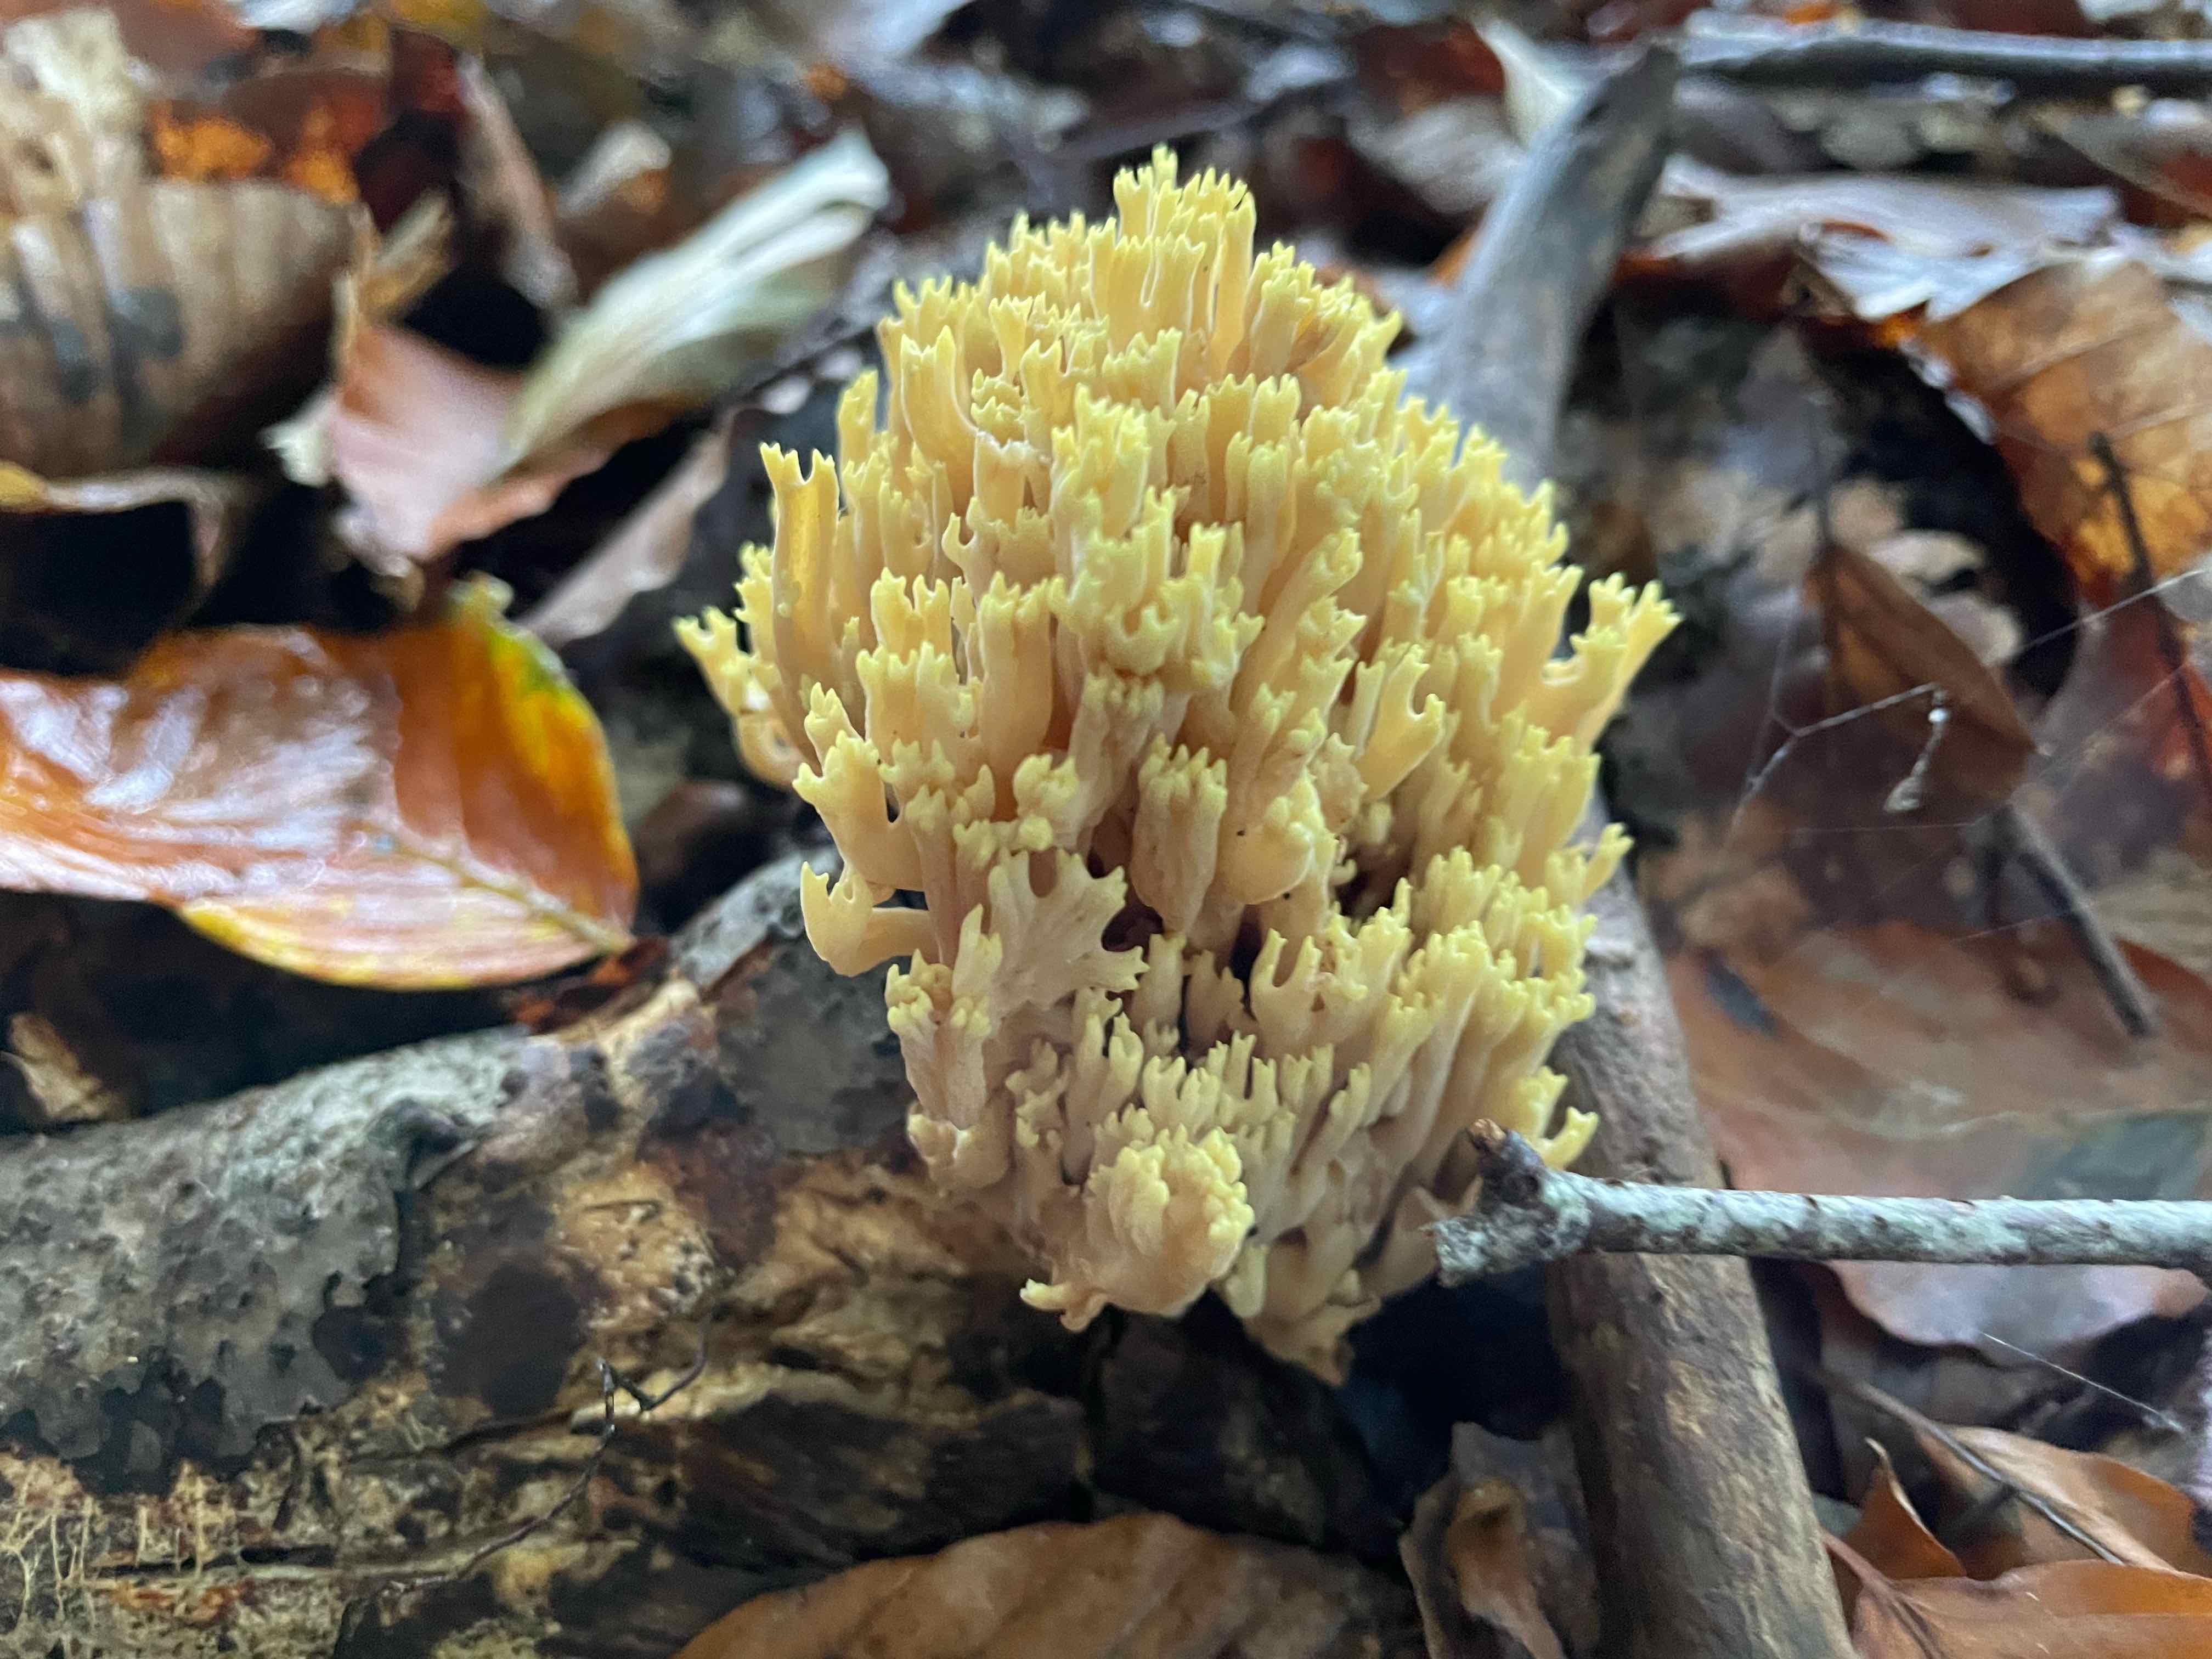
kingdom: Fungi
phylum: Basidiomycota
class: Agaricomycetes
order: Gomphales
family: Gomphaceae
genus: Ramaria
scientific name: Ramaria stricta
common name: rank koralsvamp
